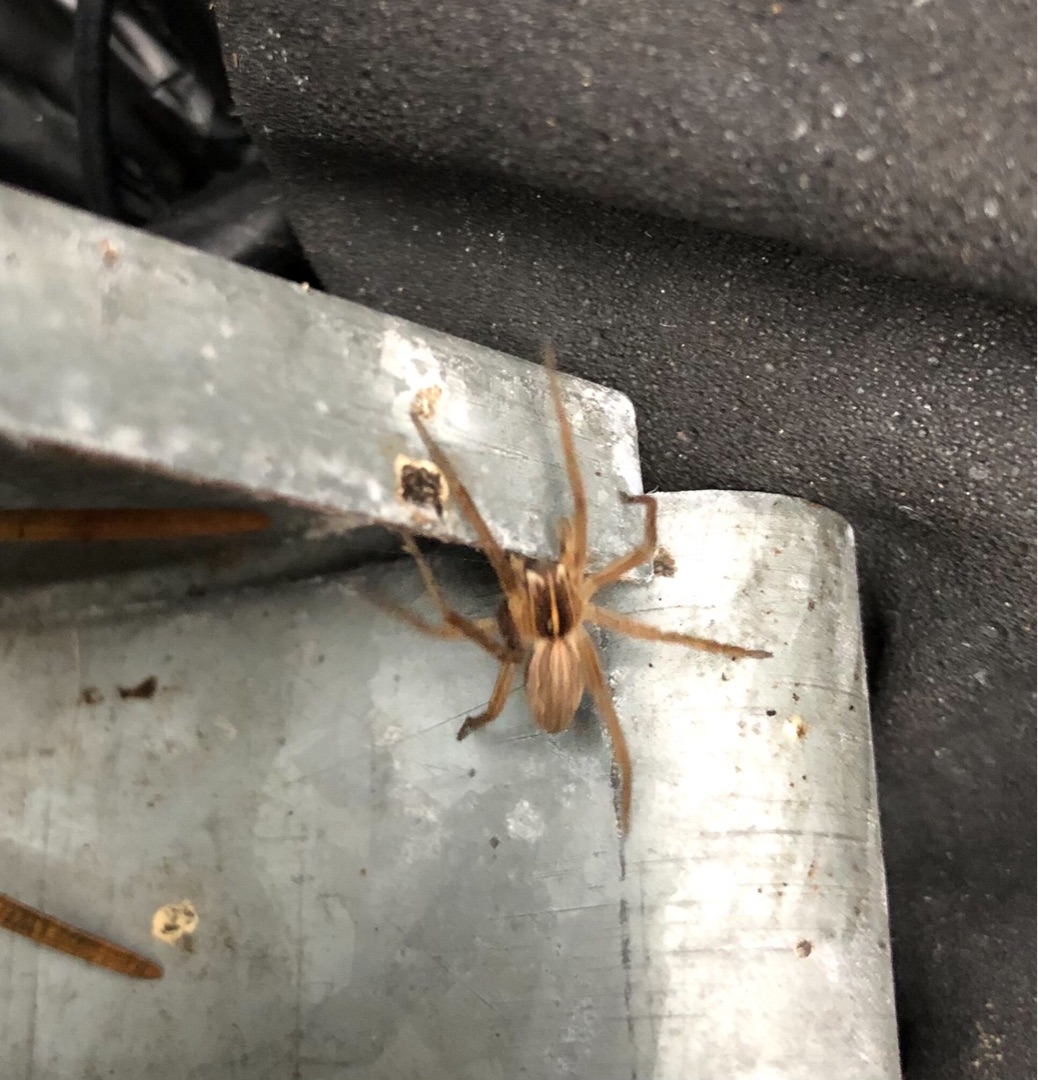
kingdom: Animalia
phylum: Arthropoda
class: Arachnida
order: Araneae
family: Pisauridae
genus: Pisaura
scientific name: Pisaura mirabilis
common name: Almindelig rovedderkop
